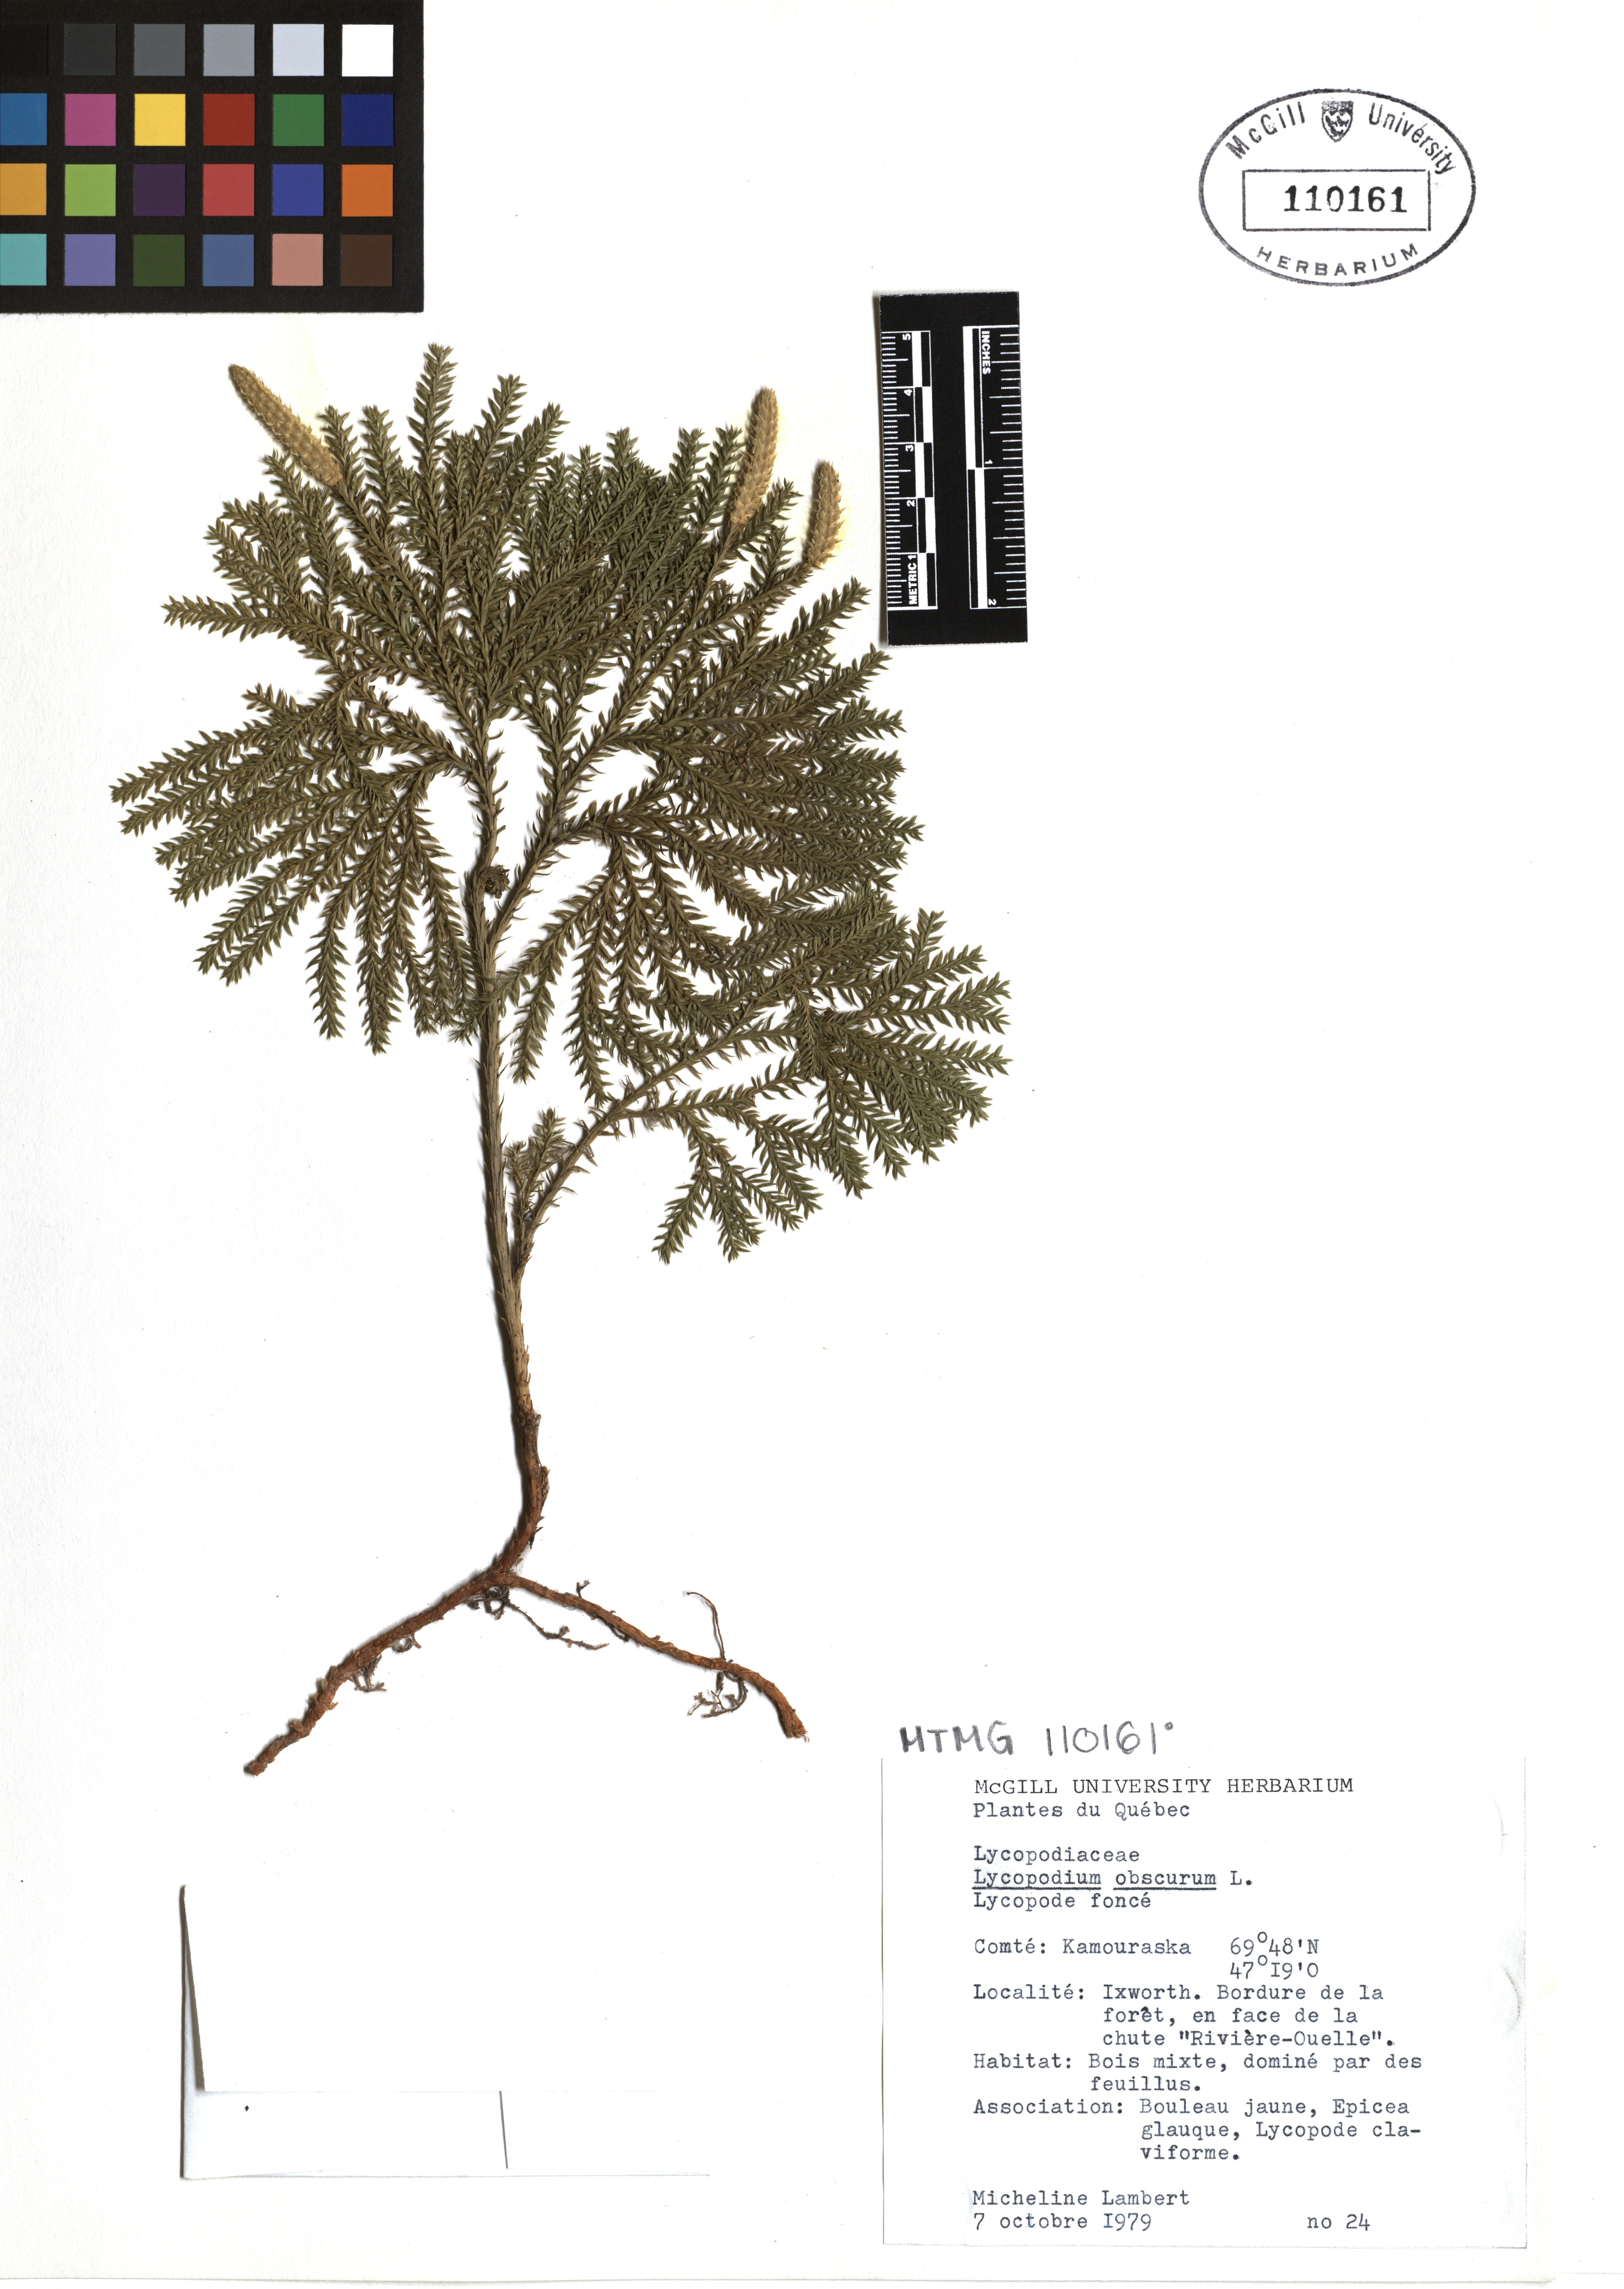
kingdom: Plantae
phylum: Tracheophyta
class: Lycopodiopsida
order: Lycopodiales
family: Lycopodiaceae
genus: Dendrolycopodium
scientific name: Dendrolycopodium obscurum
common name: Common ground-pine
